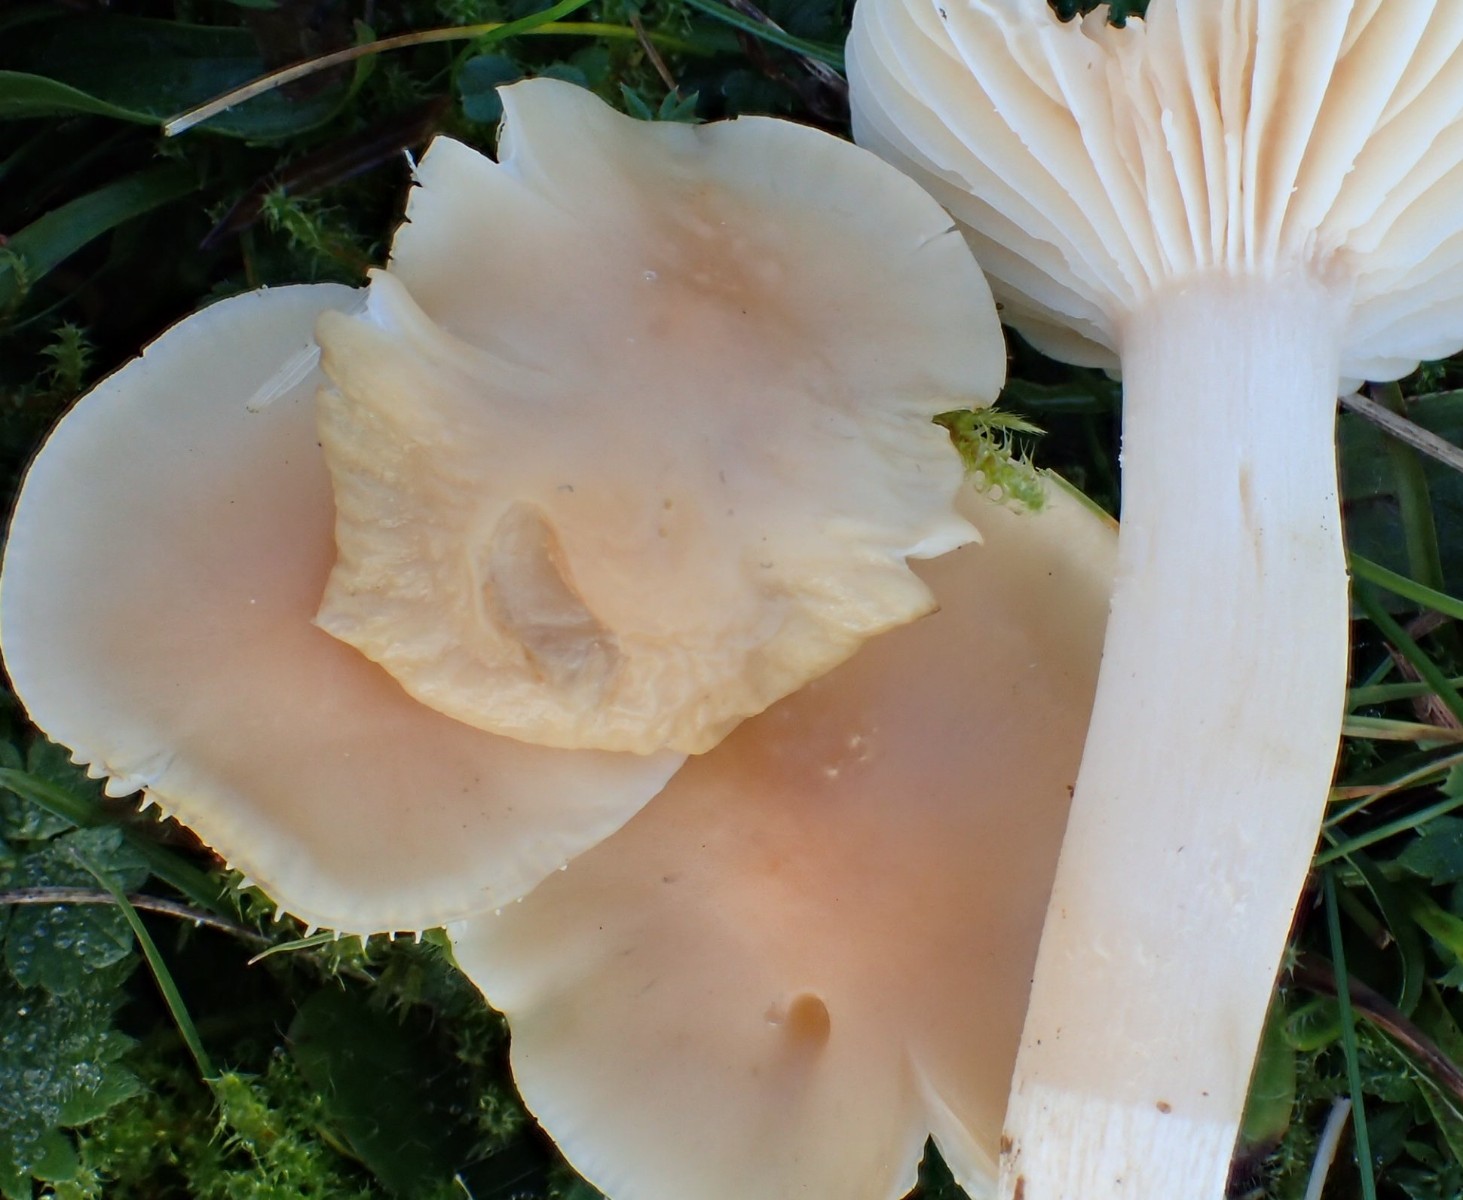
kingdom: Fungi
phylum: Basidiomycota
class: Agaricomycetes
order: Agaricales
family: Hygrophoraceae
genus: Cuphophyllus
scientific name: Cuphophyllus pratensis
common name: eng-vokshat
